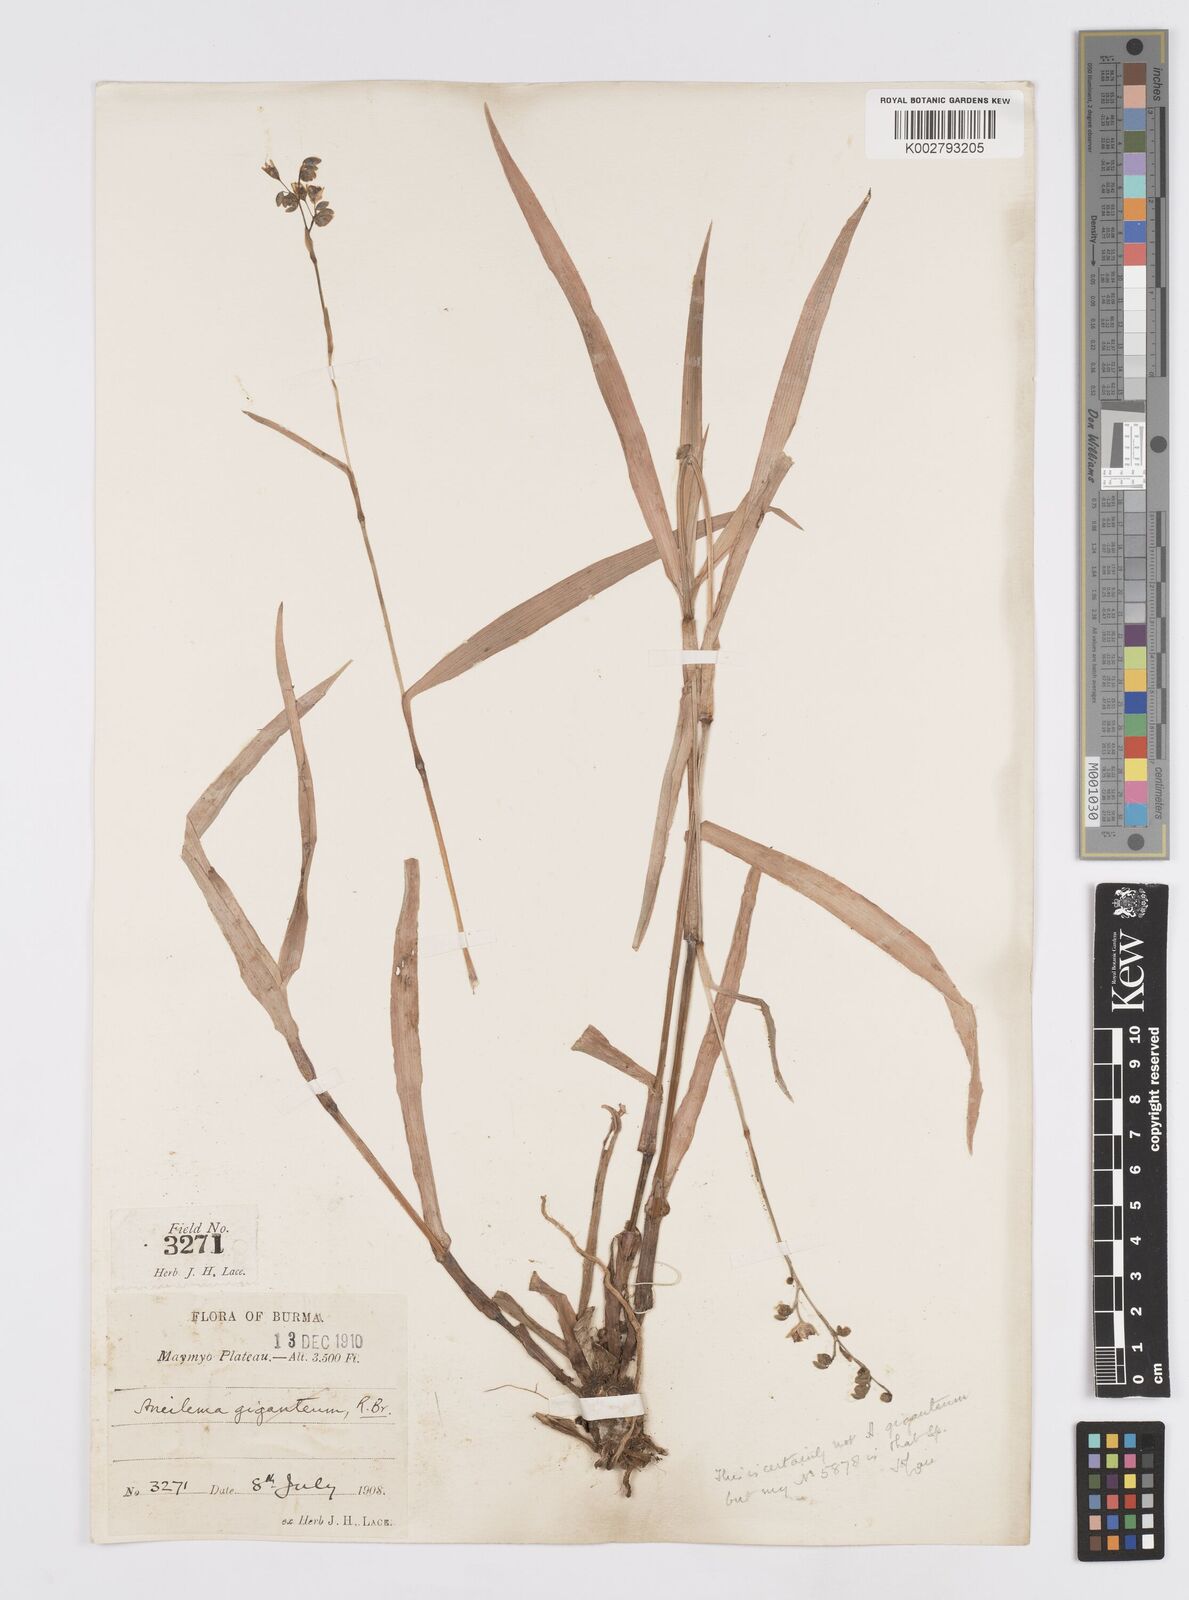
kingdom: Plantae
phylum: Tracheophyta
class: Liliopsida
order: Commelinales
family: Commelinaceae
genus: Murdannia
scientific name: Murdannia simplex
